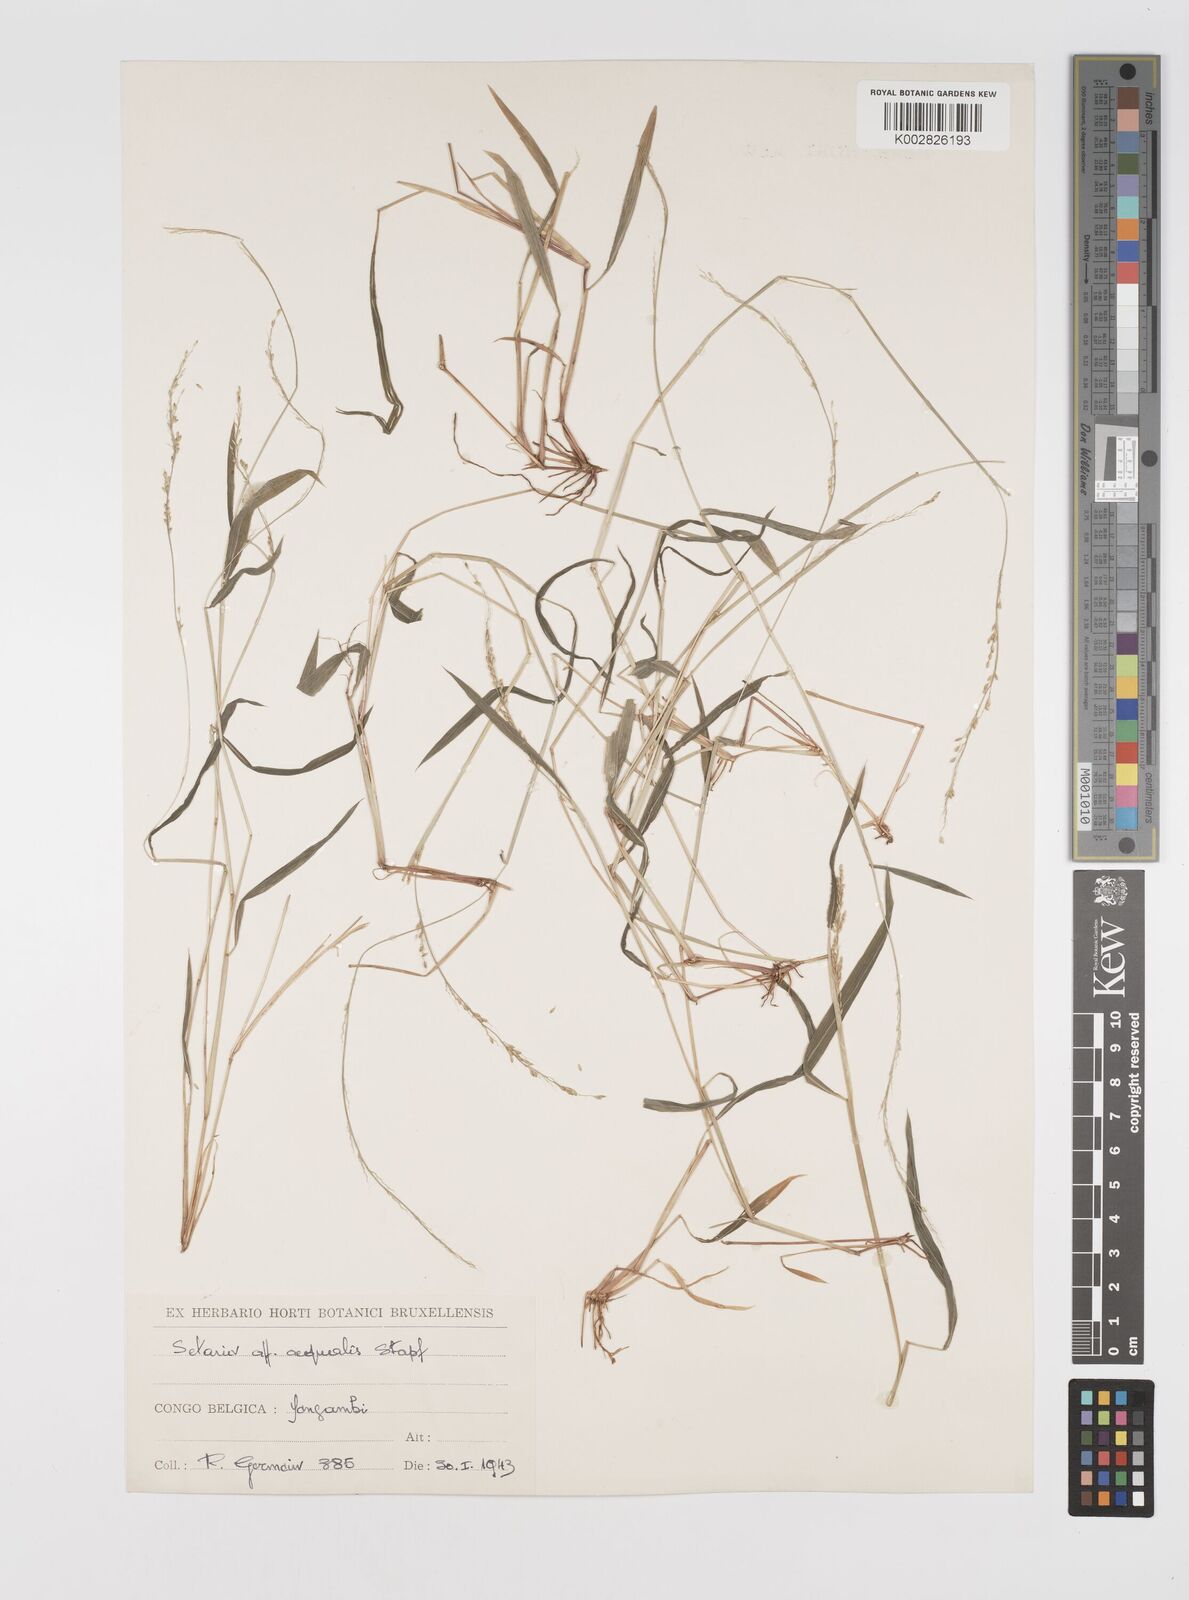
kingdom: Plantae
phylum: Tracheophyta
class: Liliopsida
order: Poales
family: Poaceae
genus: Setaria
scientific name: Setaria homonyma
